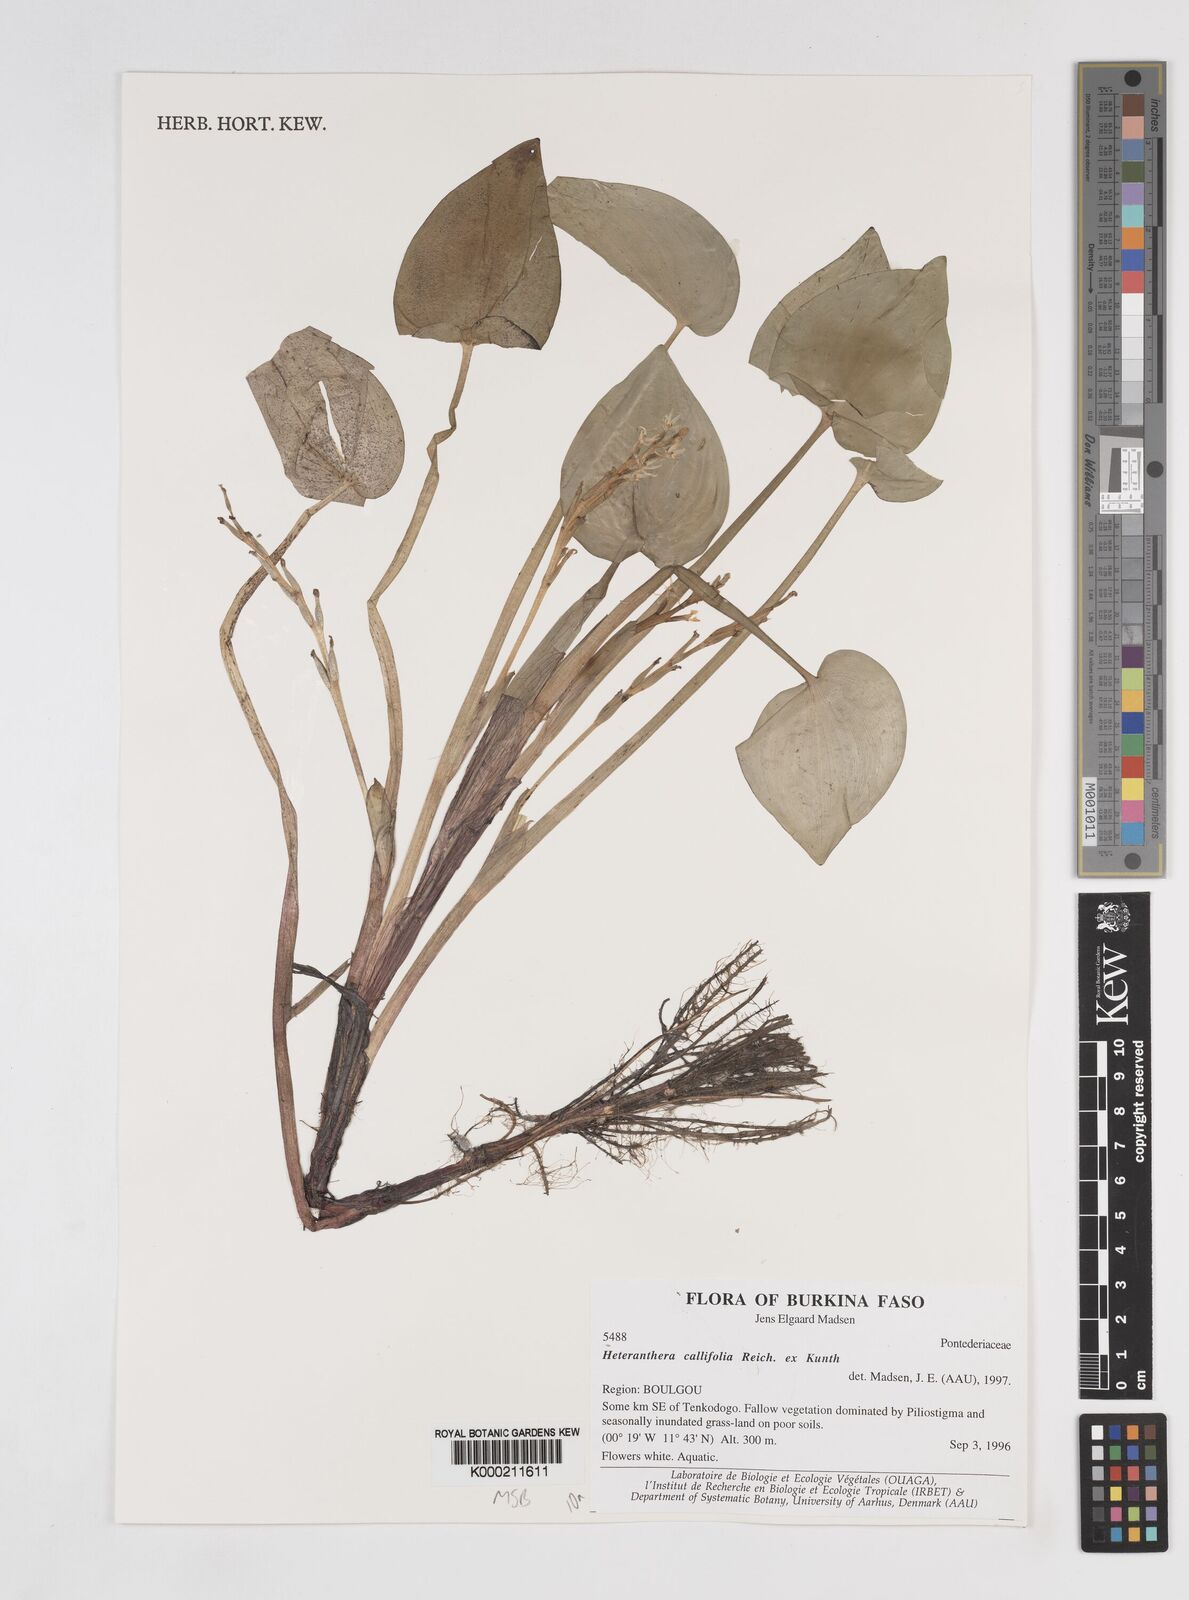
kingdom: Plantae
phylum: Tracheophyta
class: Liliopsida
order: Commelinales
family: Pontederiaceae
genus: Heteranthera
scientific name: Heteranthera callifolia
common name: Mud plantain
